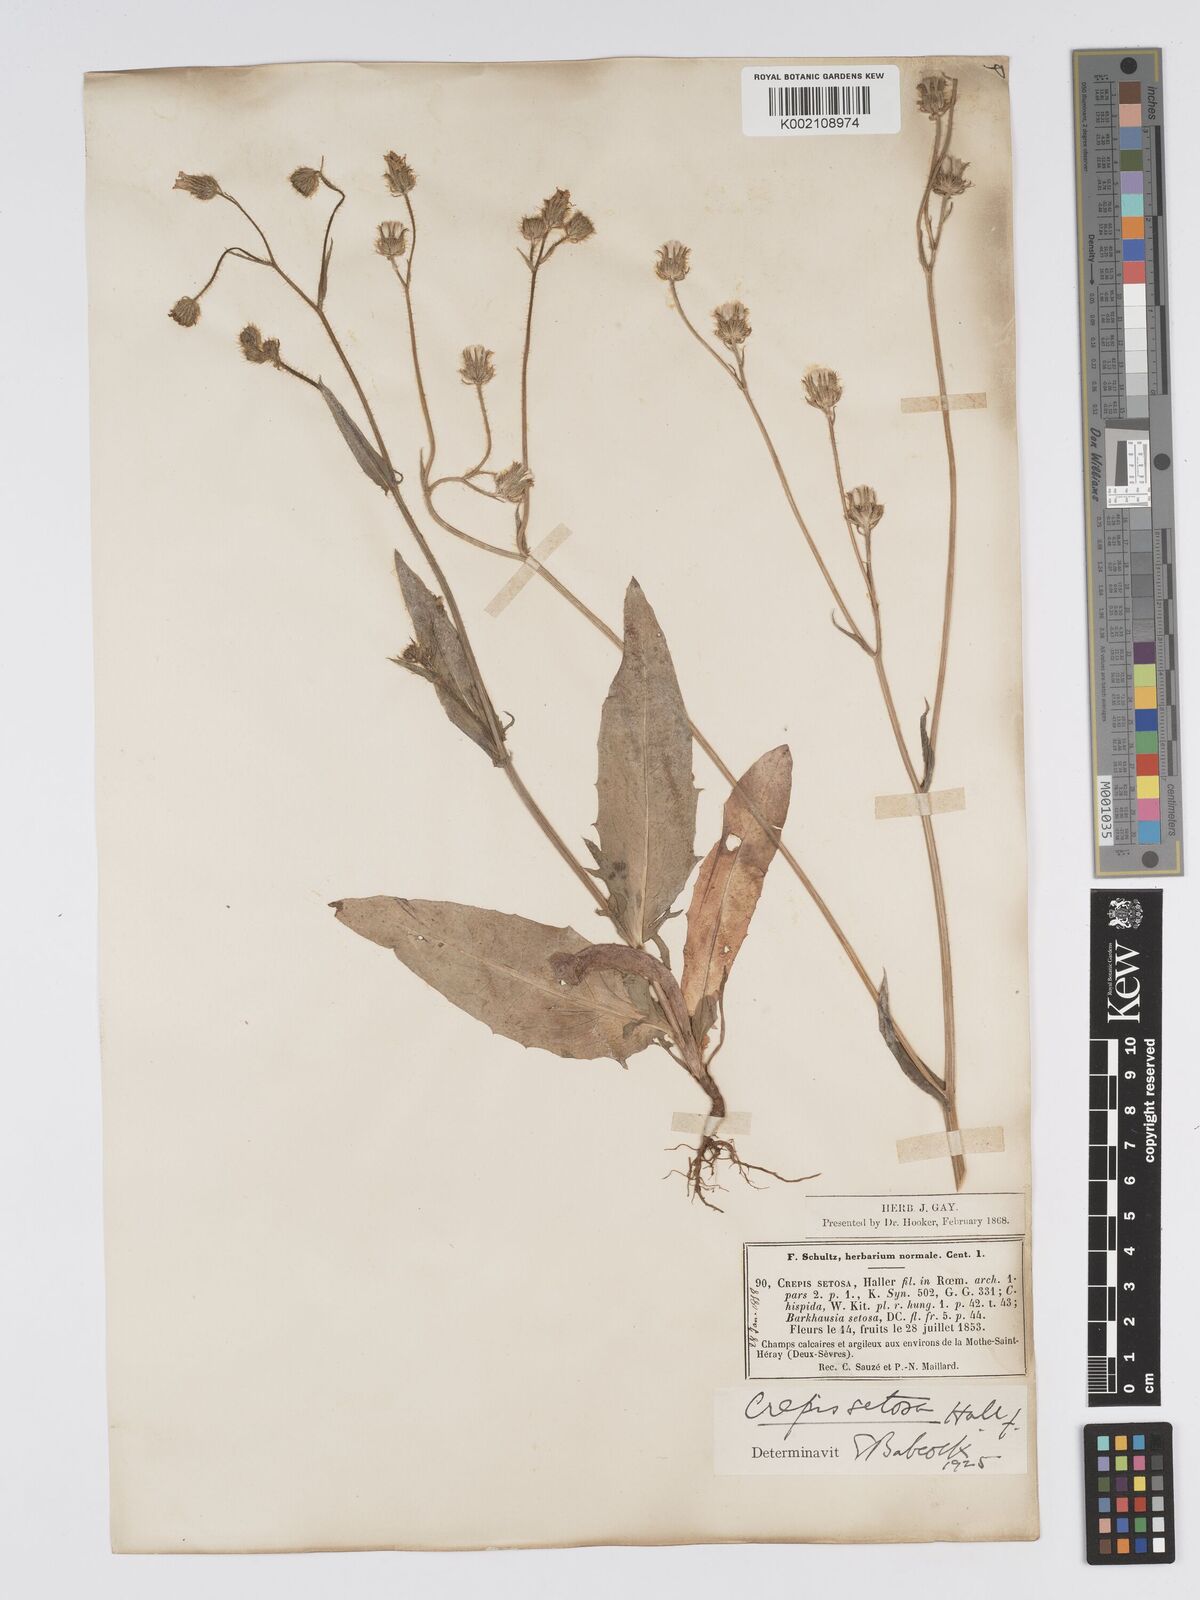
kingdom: Plantae
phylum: Tracheophyta
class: Magnoliopsida
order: Asterales
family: Asteraceae
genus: Crepis
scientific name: Crepis setosa
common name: Bristly hawk's-beard
